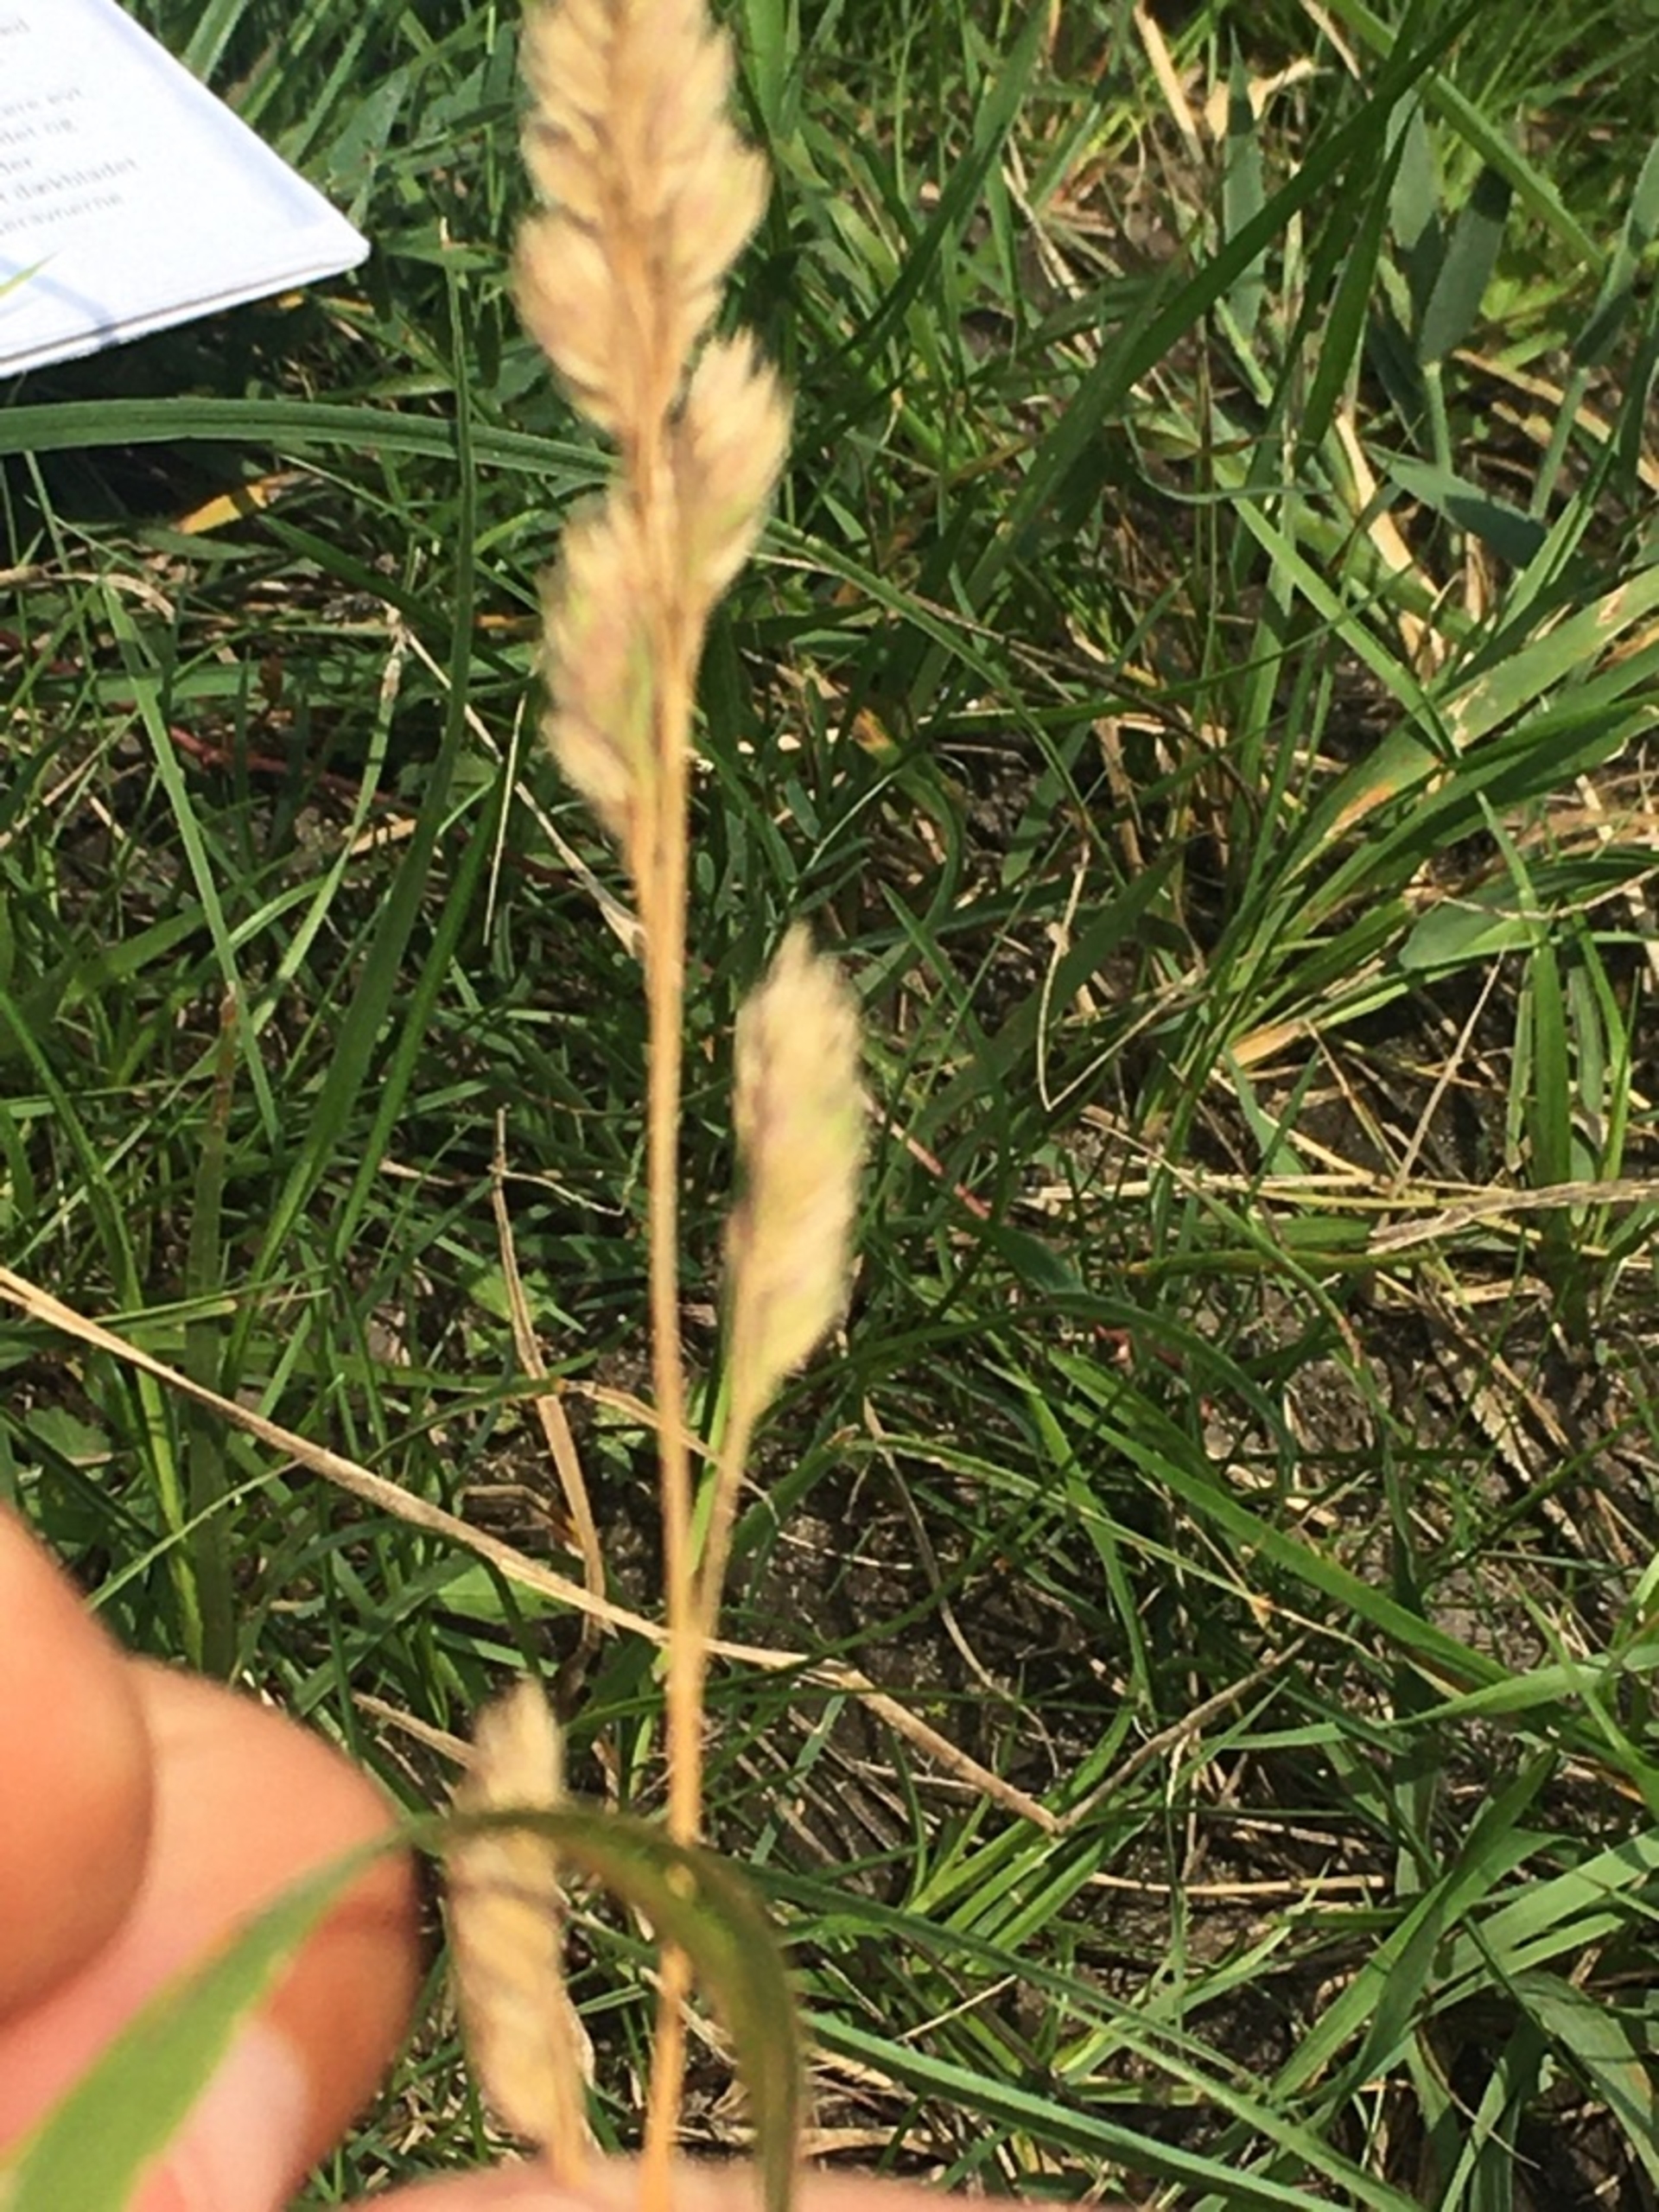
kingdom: Plantae
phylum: Tracheophyta
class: Liliopsida
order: Poales
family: Poaceae
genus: Dactylis
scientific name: Dactylis glomerata
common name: Almindelig hundegræs
